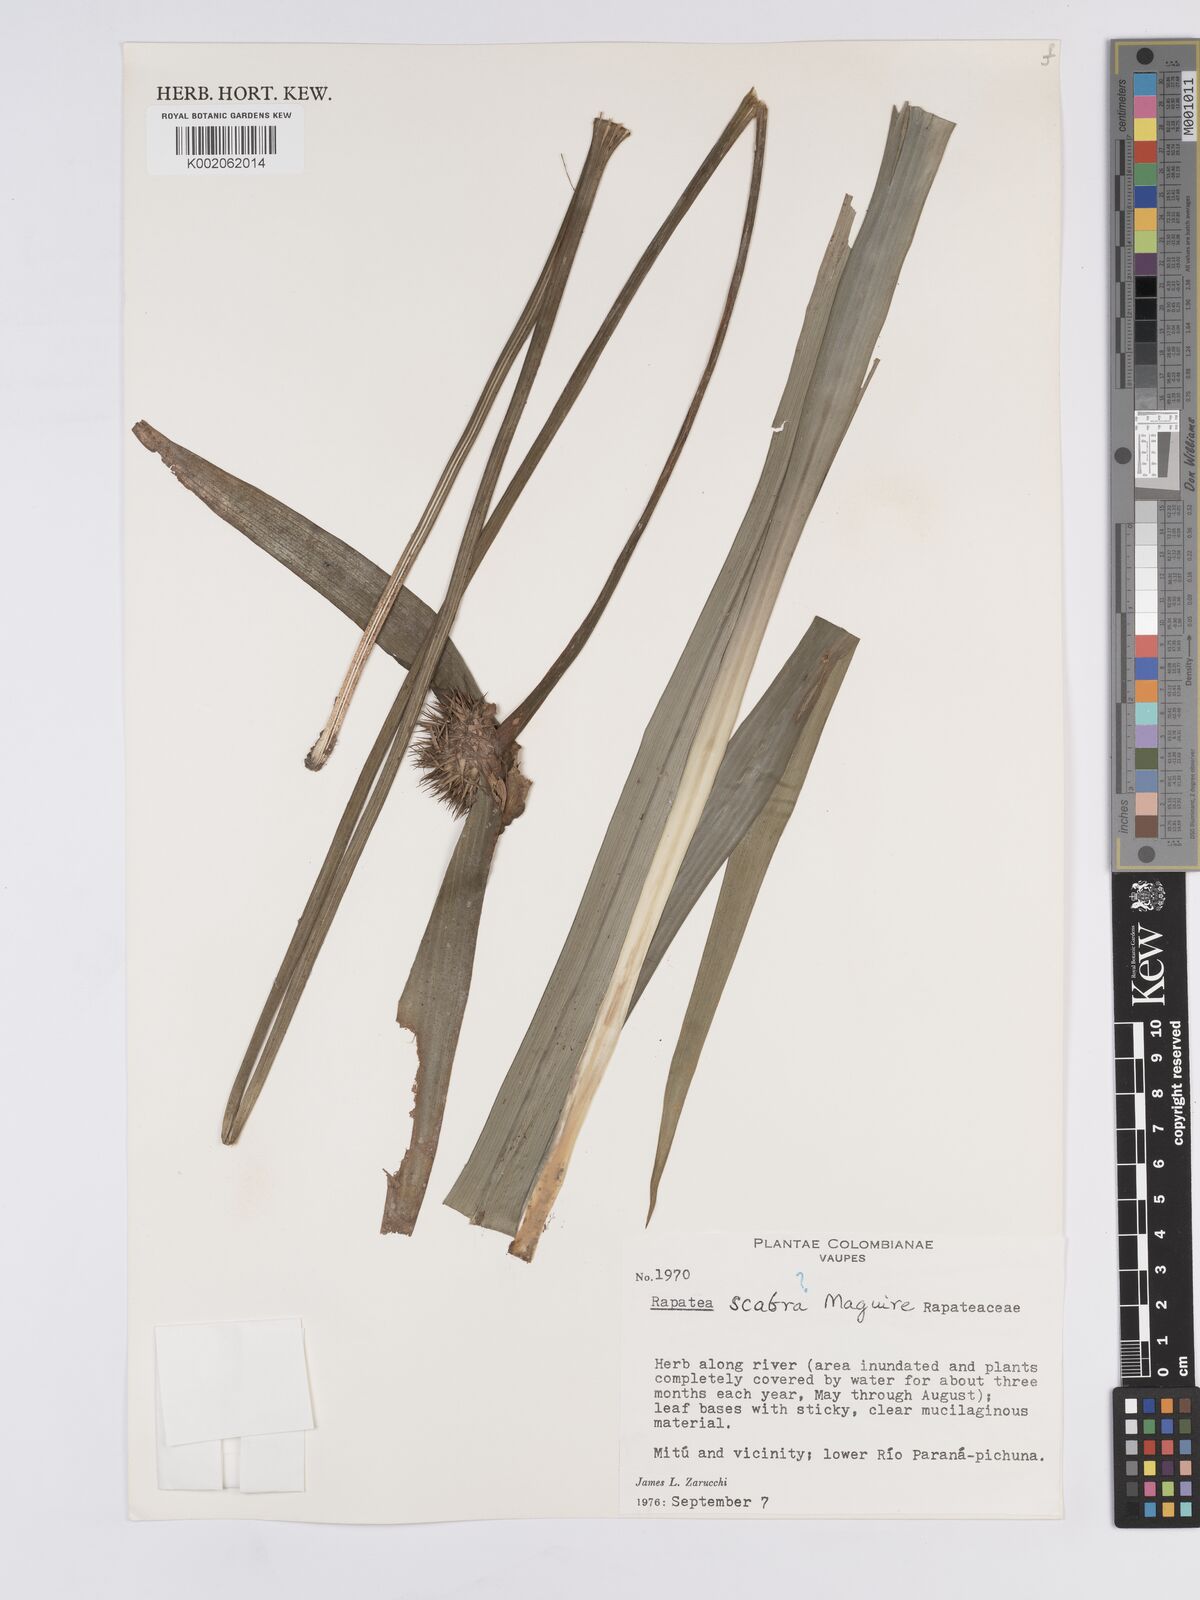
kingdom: Plantae
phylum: Tracheophyta
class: Liliopsida
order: Poales
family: Rapateaceae
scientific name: Rapateaceae
